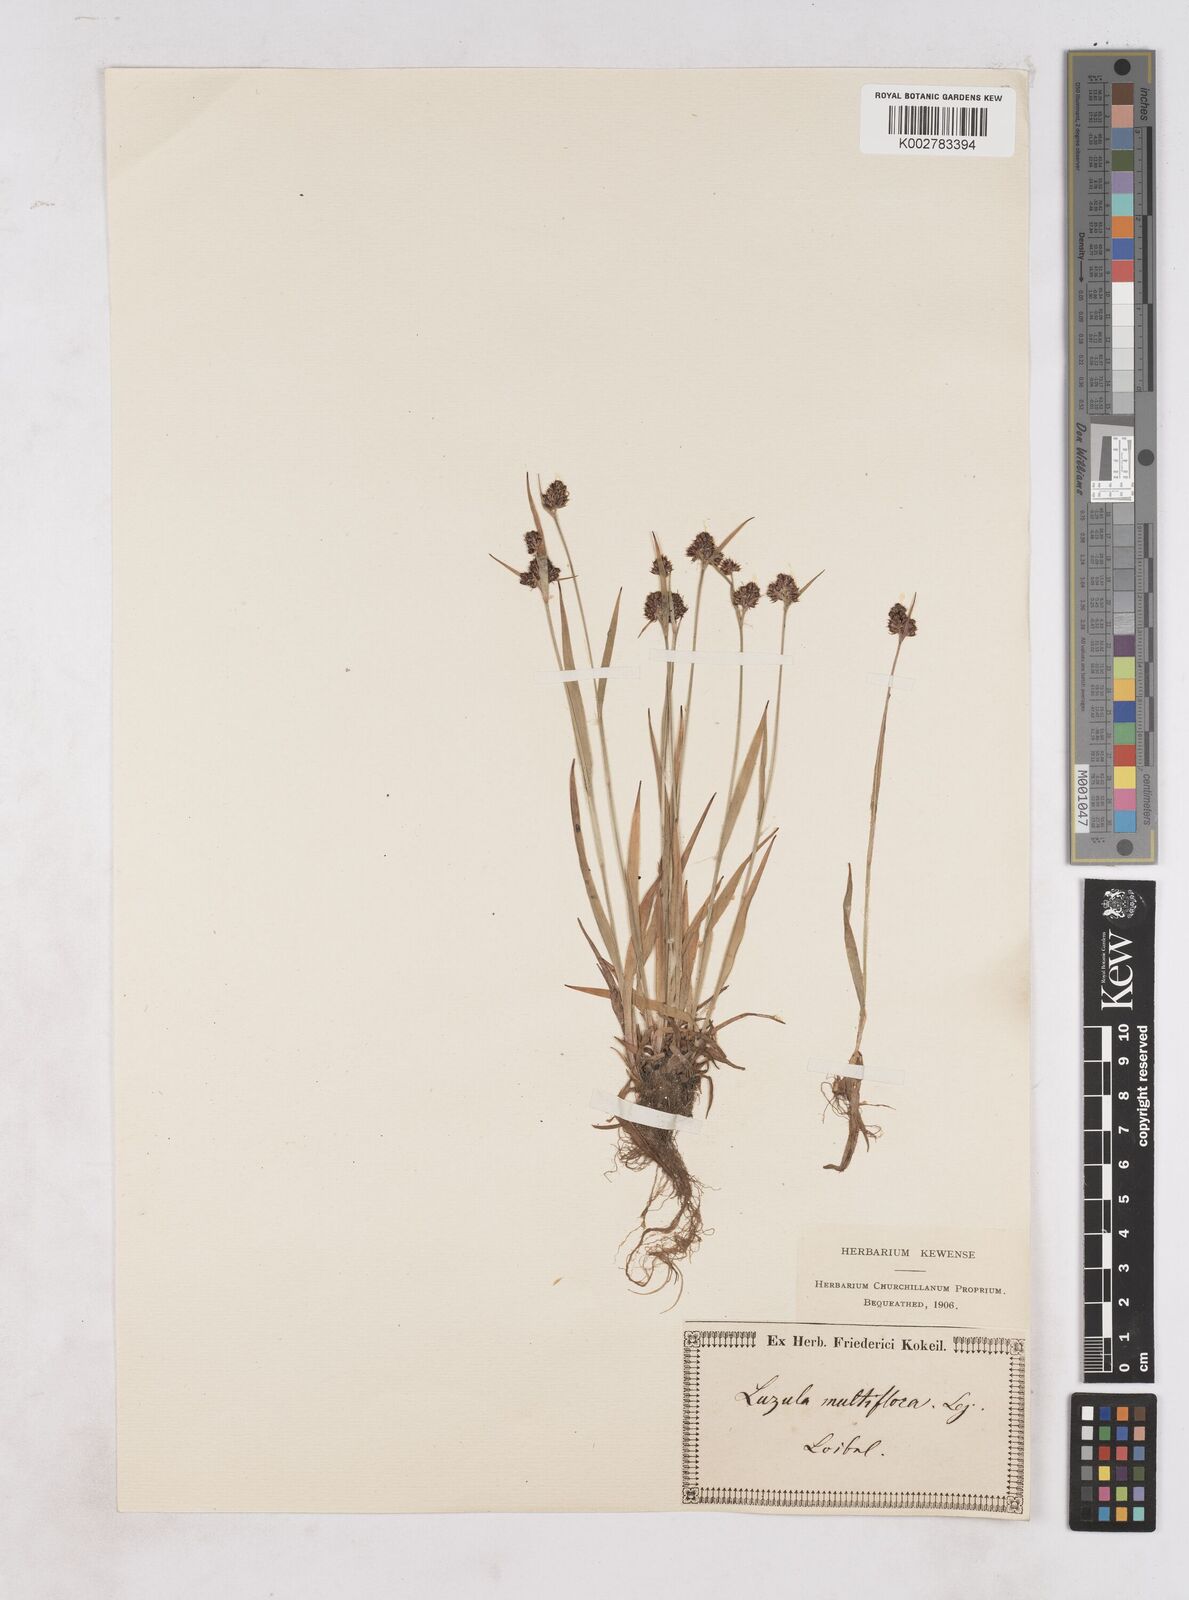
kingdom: Plantae
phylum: Tracheophyta
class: Liliopsida
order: Poales
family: Juncaceae
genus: Luzula
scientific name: Luzula multiflora
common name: Heath wood-rush
